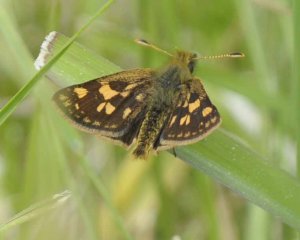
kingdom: Animalia
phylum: Arthropoda
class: Insecta
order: Lepidoptera
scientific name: Lepidoptera
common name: Butterflies
